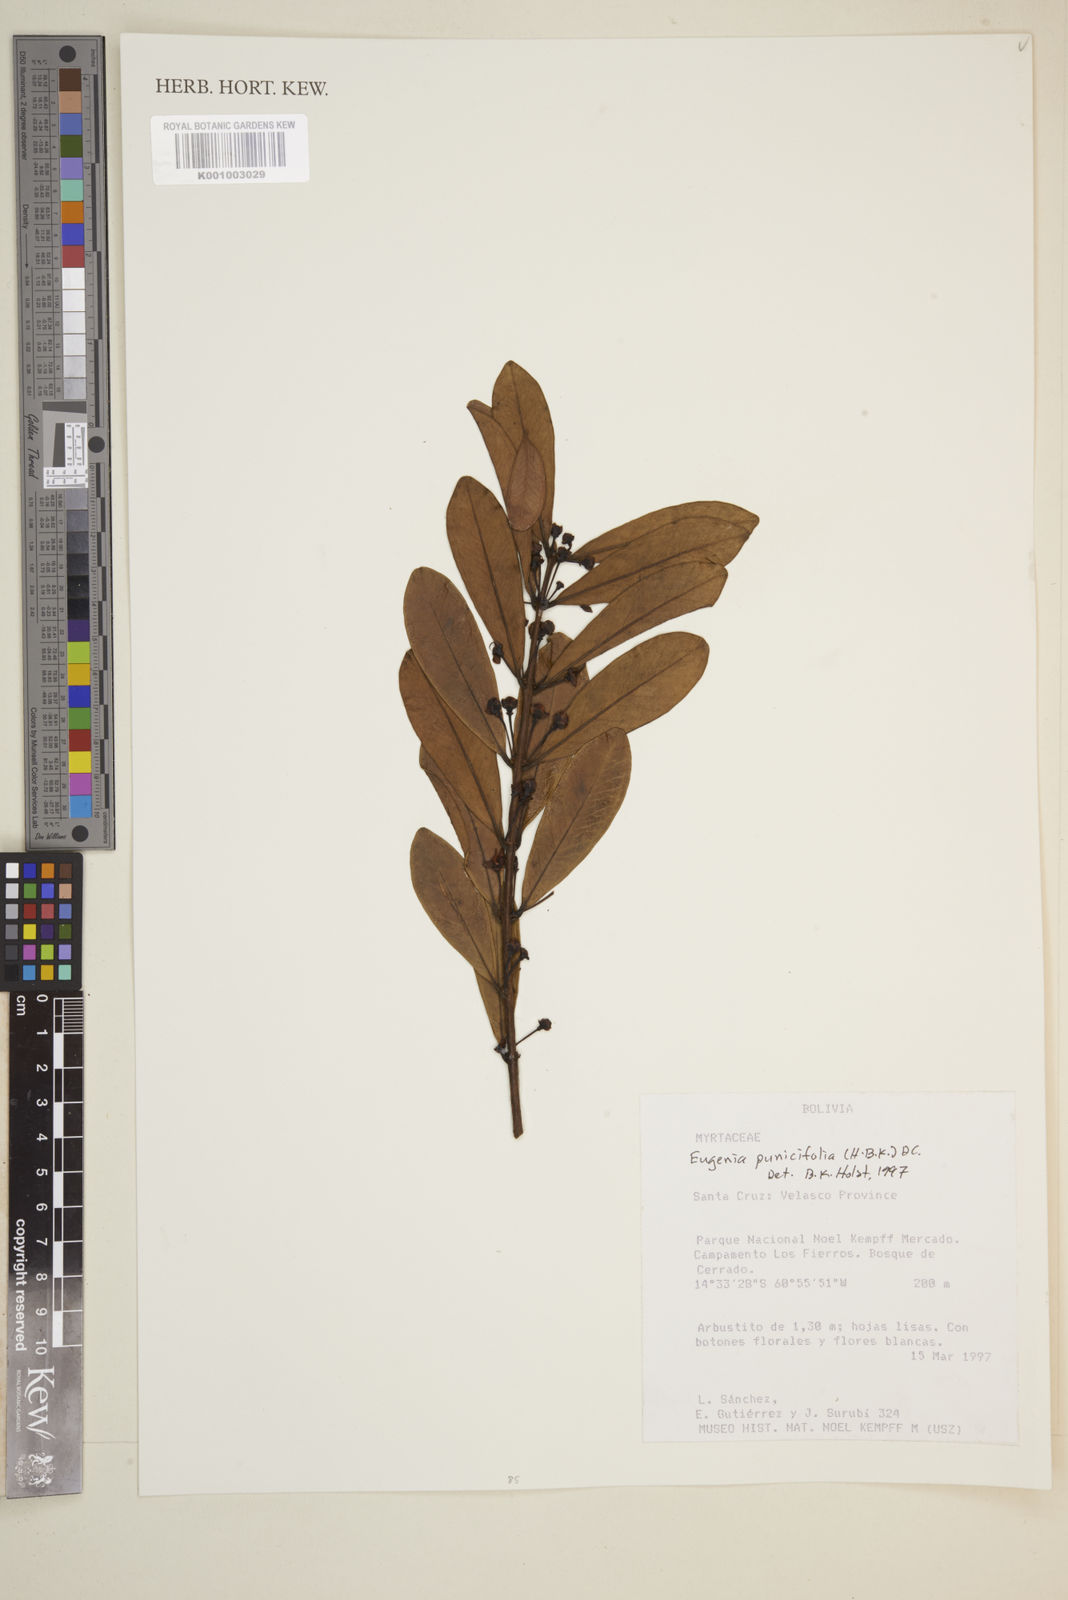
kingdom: Plantae
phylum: Tracheophyta
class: Magnoliopsida
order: Myrtales
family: Myrtaceae
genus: Eugenia
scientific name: Eugenia punicifolia
